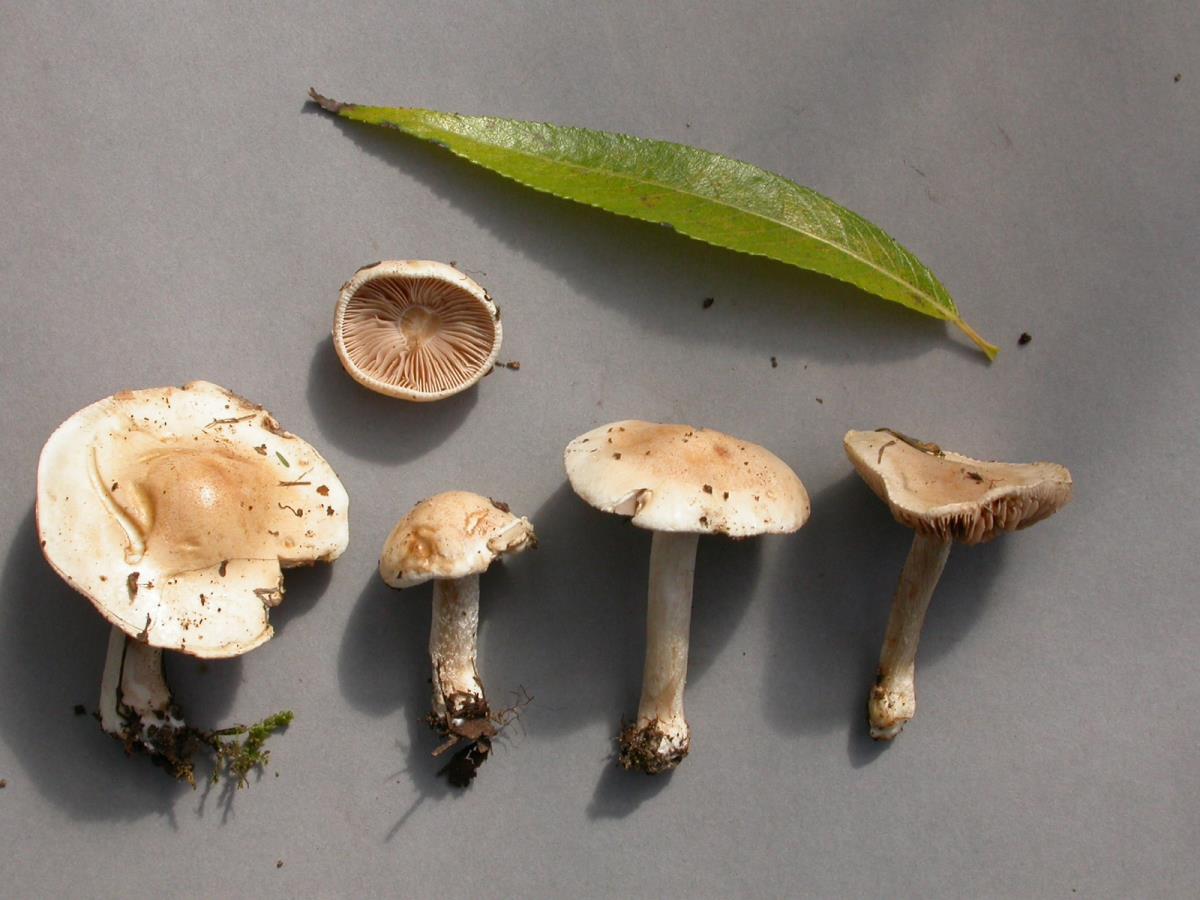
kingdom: Fungi
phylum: Basidiomycota
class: Agaricomycetes
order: Agaricales
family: Hymenogastraceae
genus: Hebeloma
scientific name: Hebeloma hiemale
